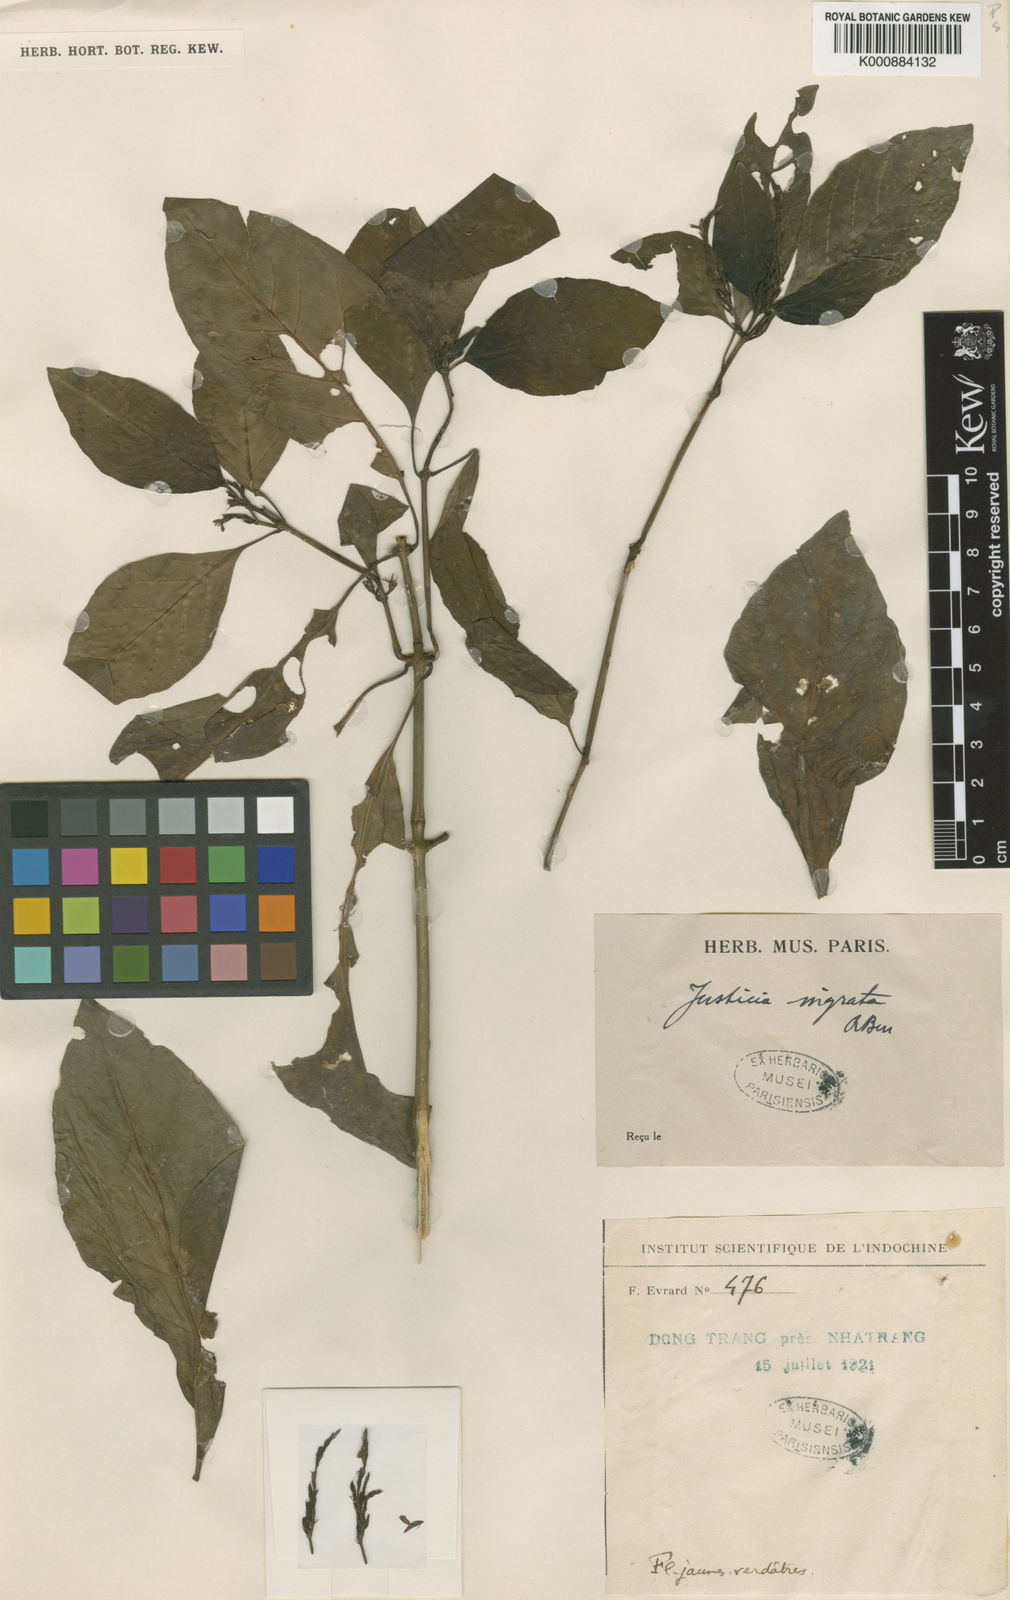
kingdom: Plantae
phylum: Tracheophyta
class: Magnoliopsida
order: Lamiales
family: Acanthaceae
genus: Justicia
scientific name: Justicia ingrata
